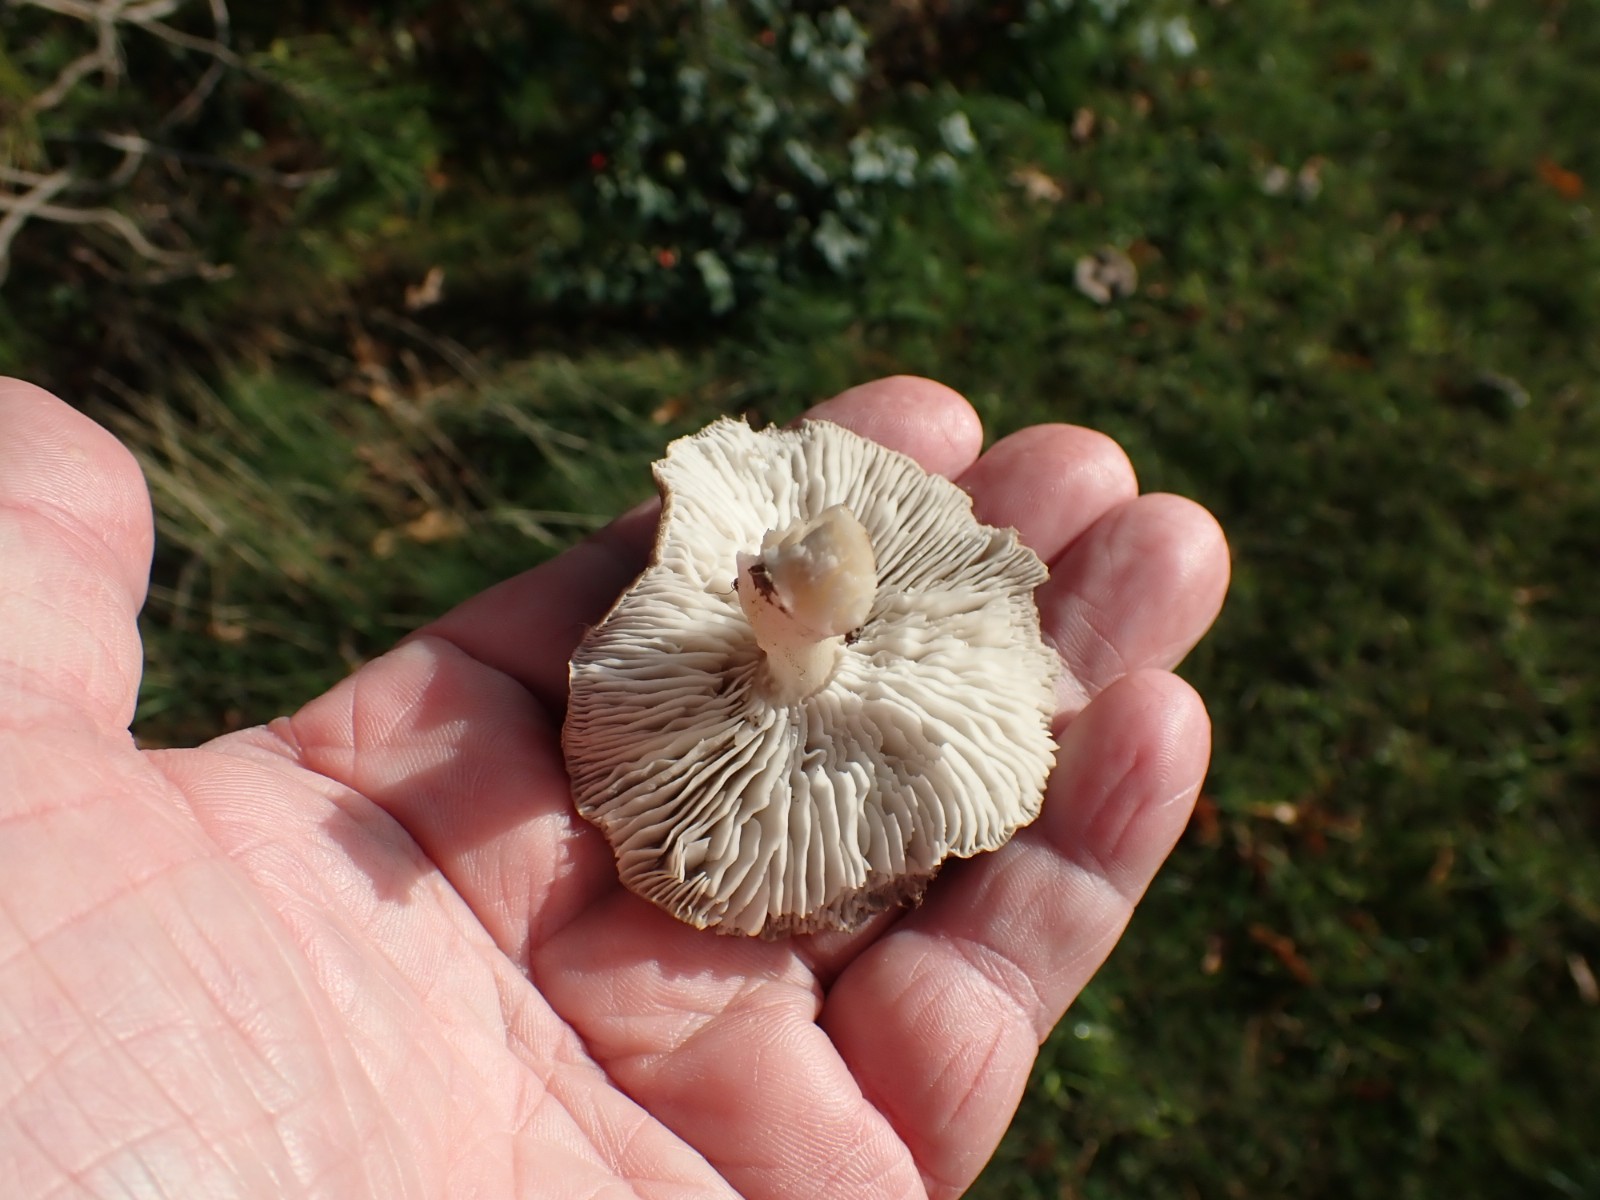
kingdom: Fungi
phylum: Basidiomycota
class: Agaricomycetes
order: Agaricales
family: Tricholomataceae
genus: Tricholoma
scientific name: Tricholoma terreum
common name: jordfarvet ridderhat
